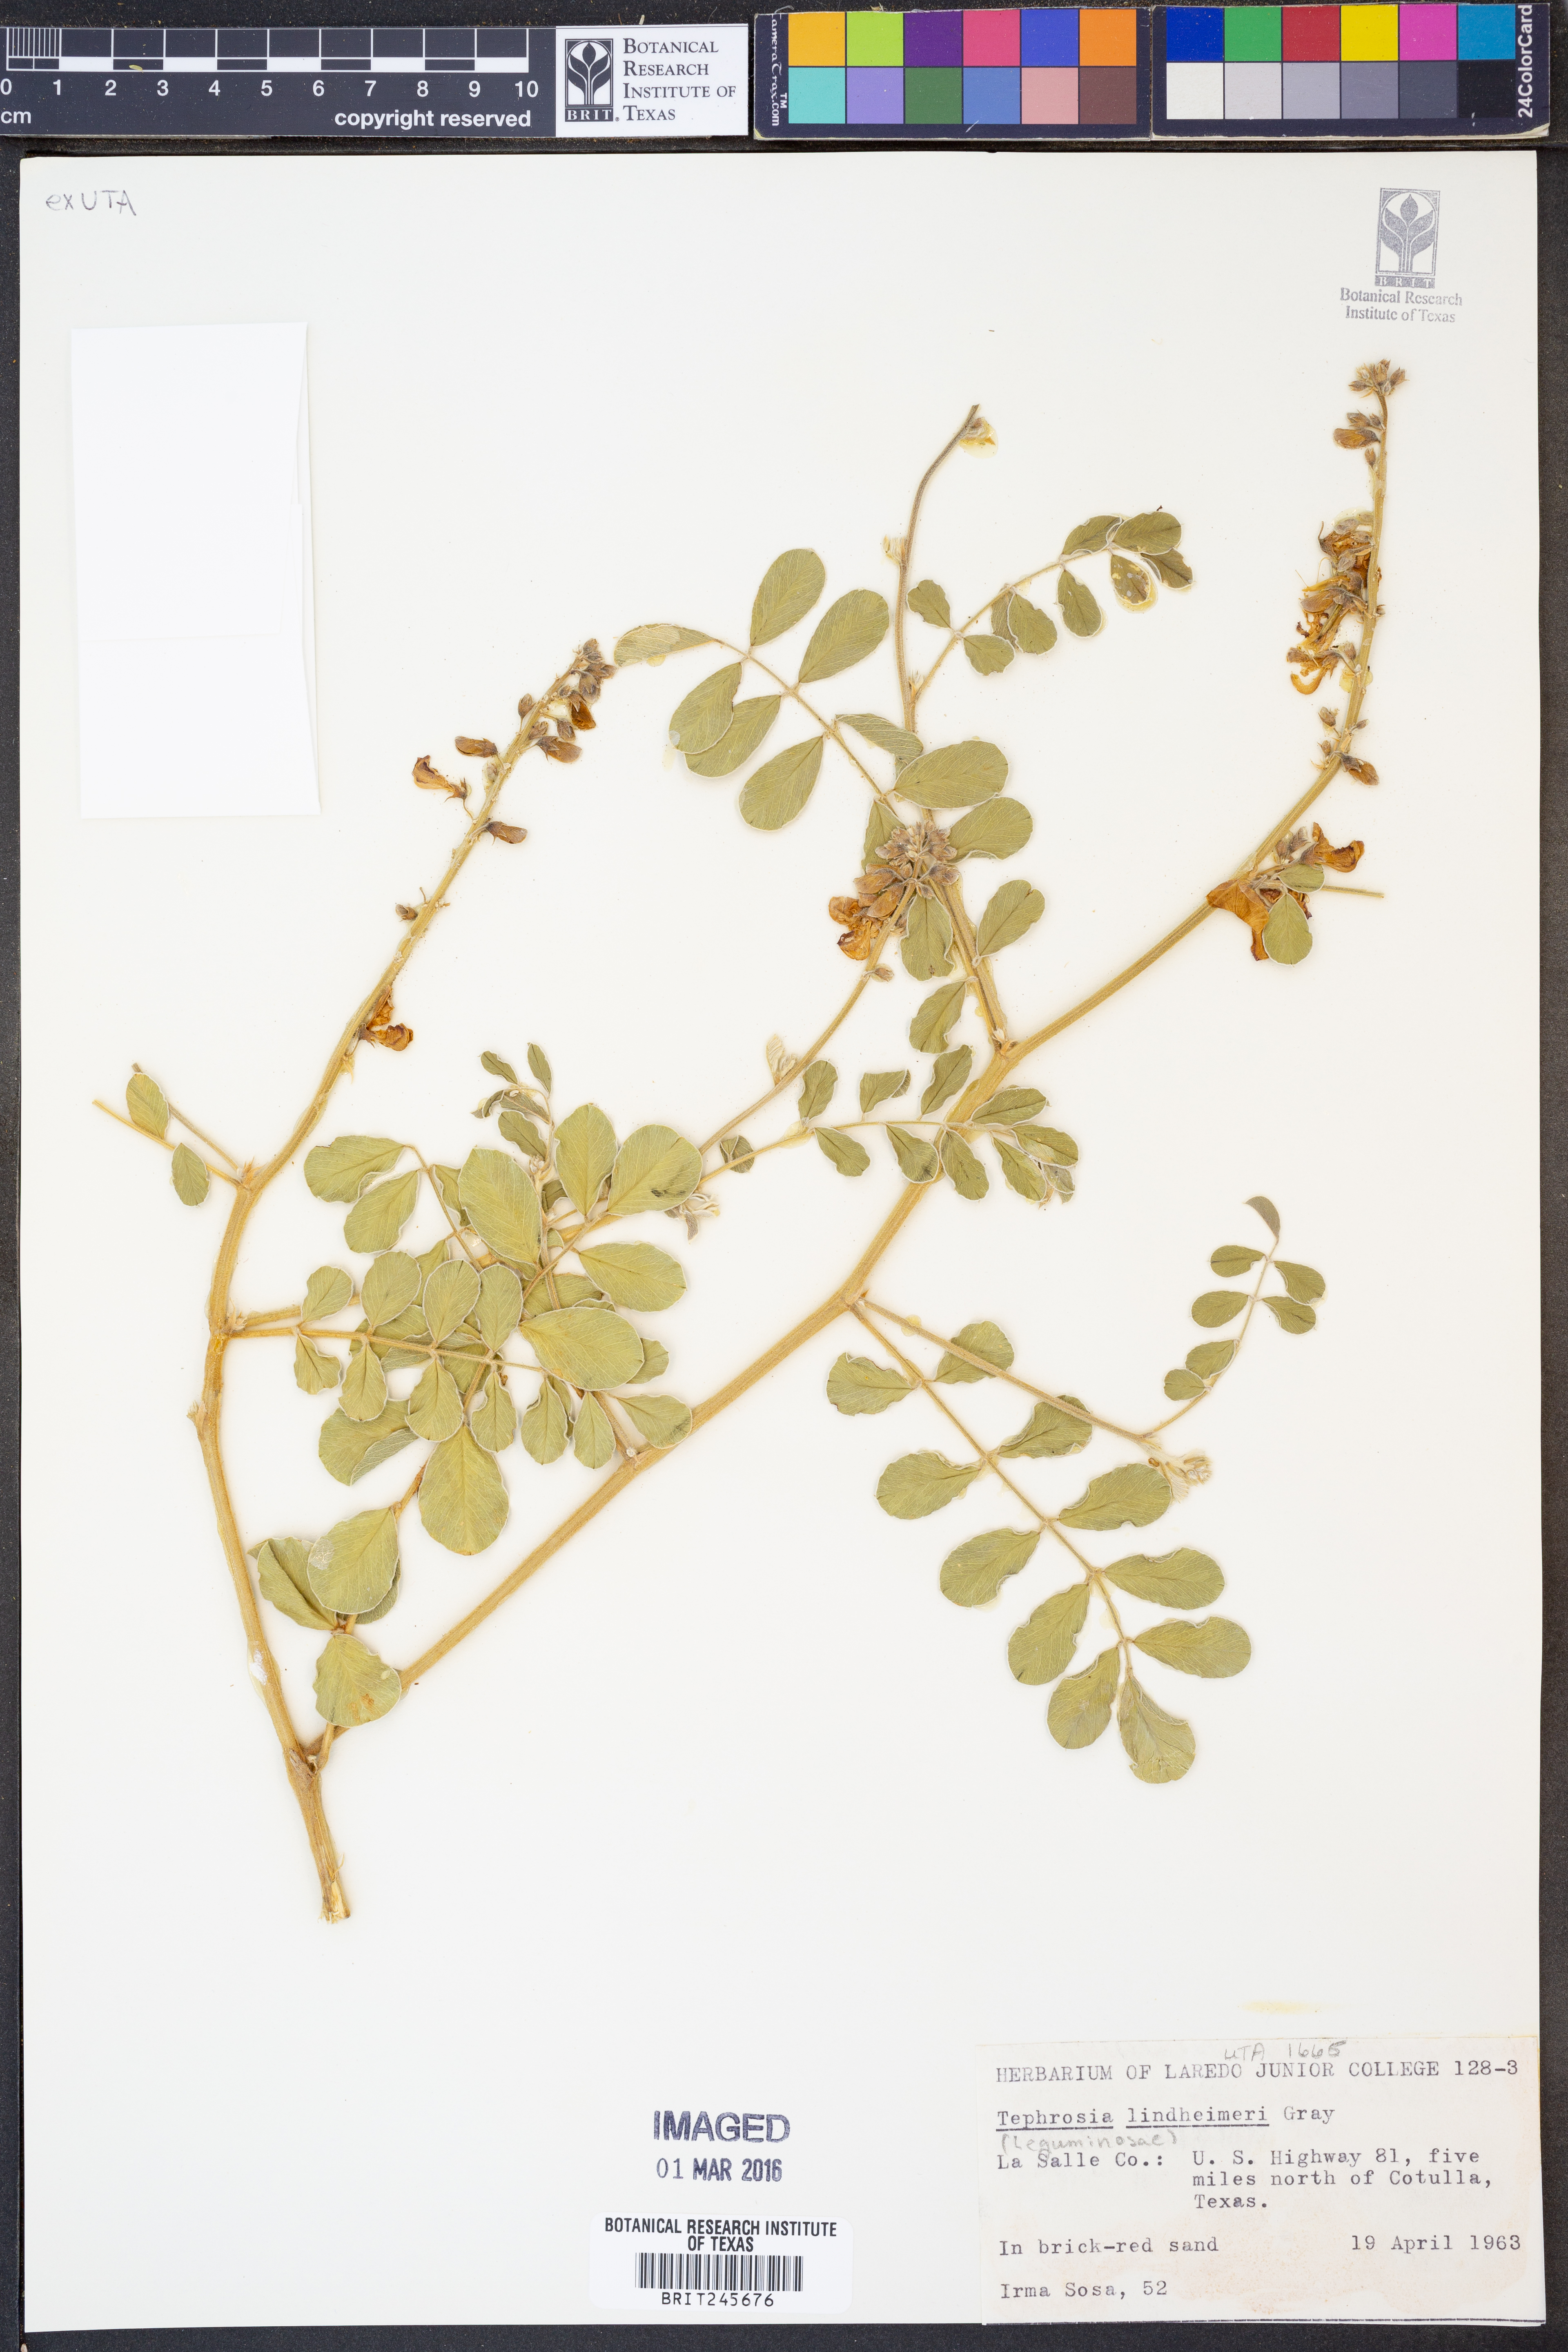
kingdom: Plantae
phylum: Tracheophyta
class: Magnoliopsida
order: Fabales
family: Fabaceae
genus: Tephrosia
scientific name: Tephrosia lindheimeri
